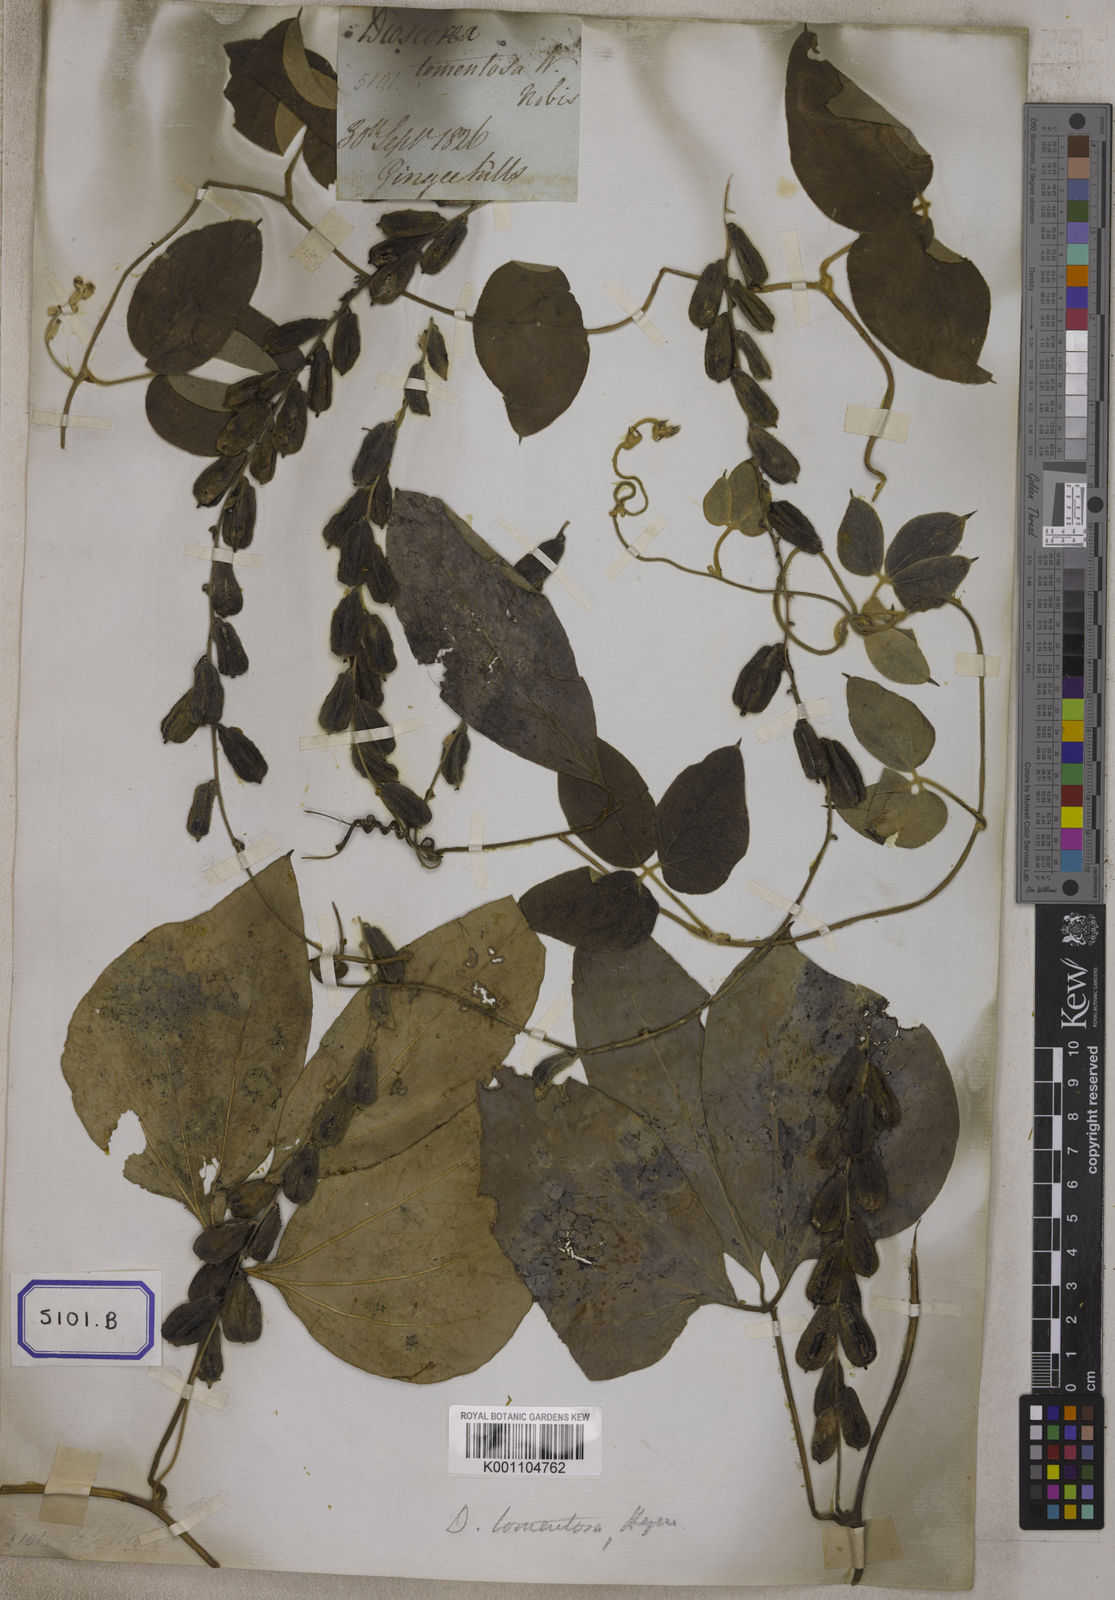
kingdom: Plantae
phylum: Tracheophyta
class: Liliopsida
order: Dioscoreales
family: Dioscoreaceae
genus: Dioscorea
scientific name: Dioscorea
